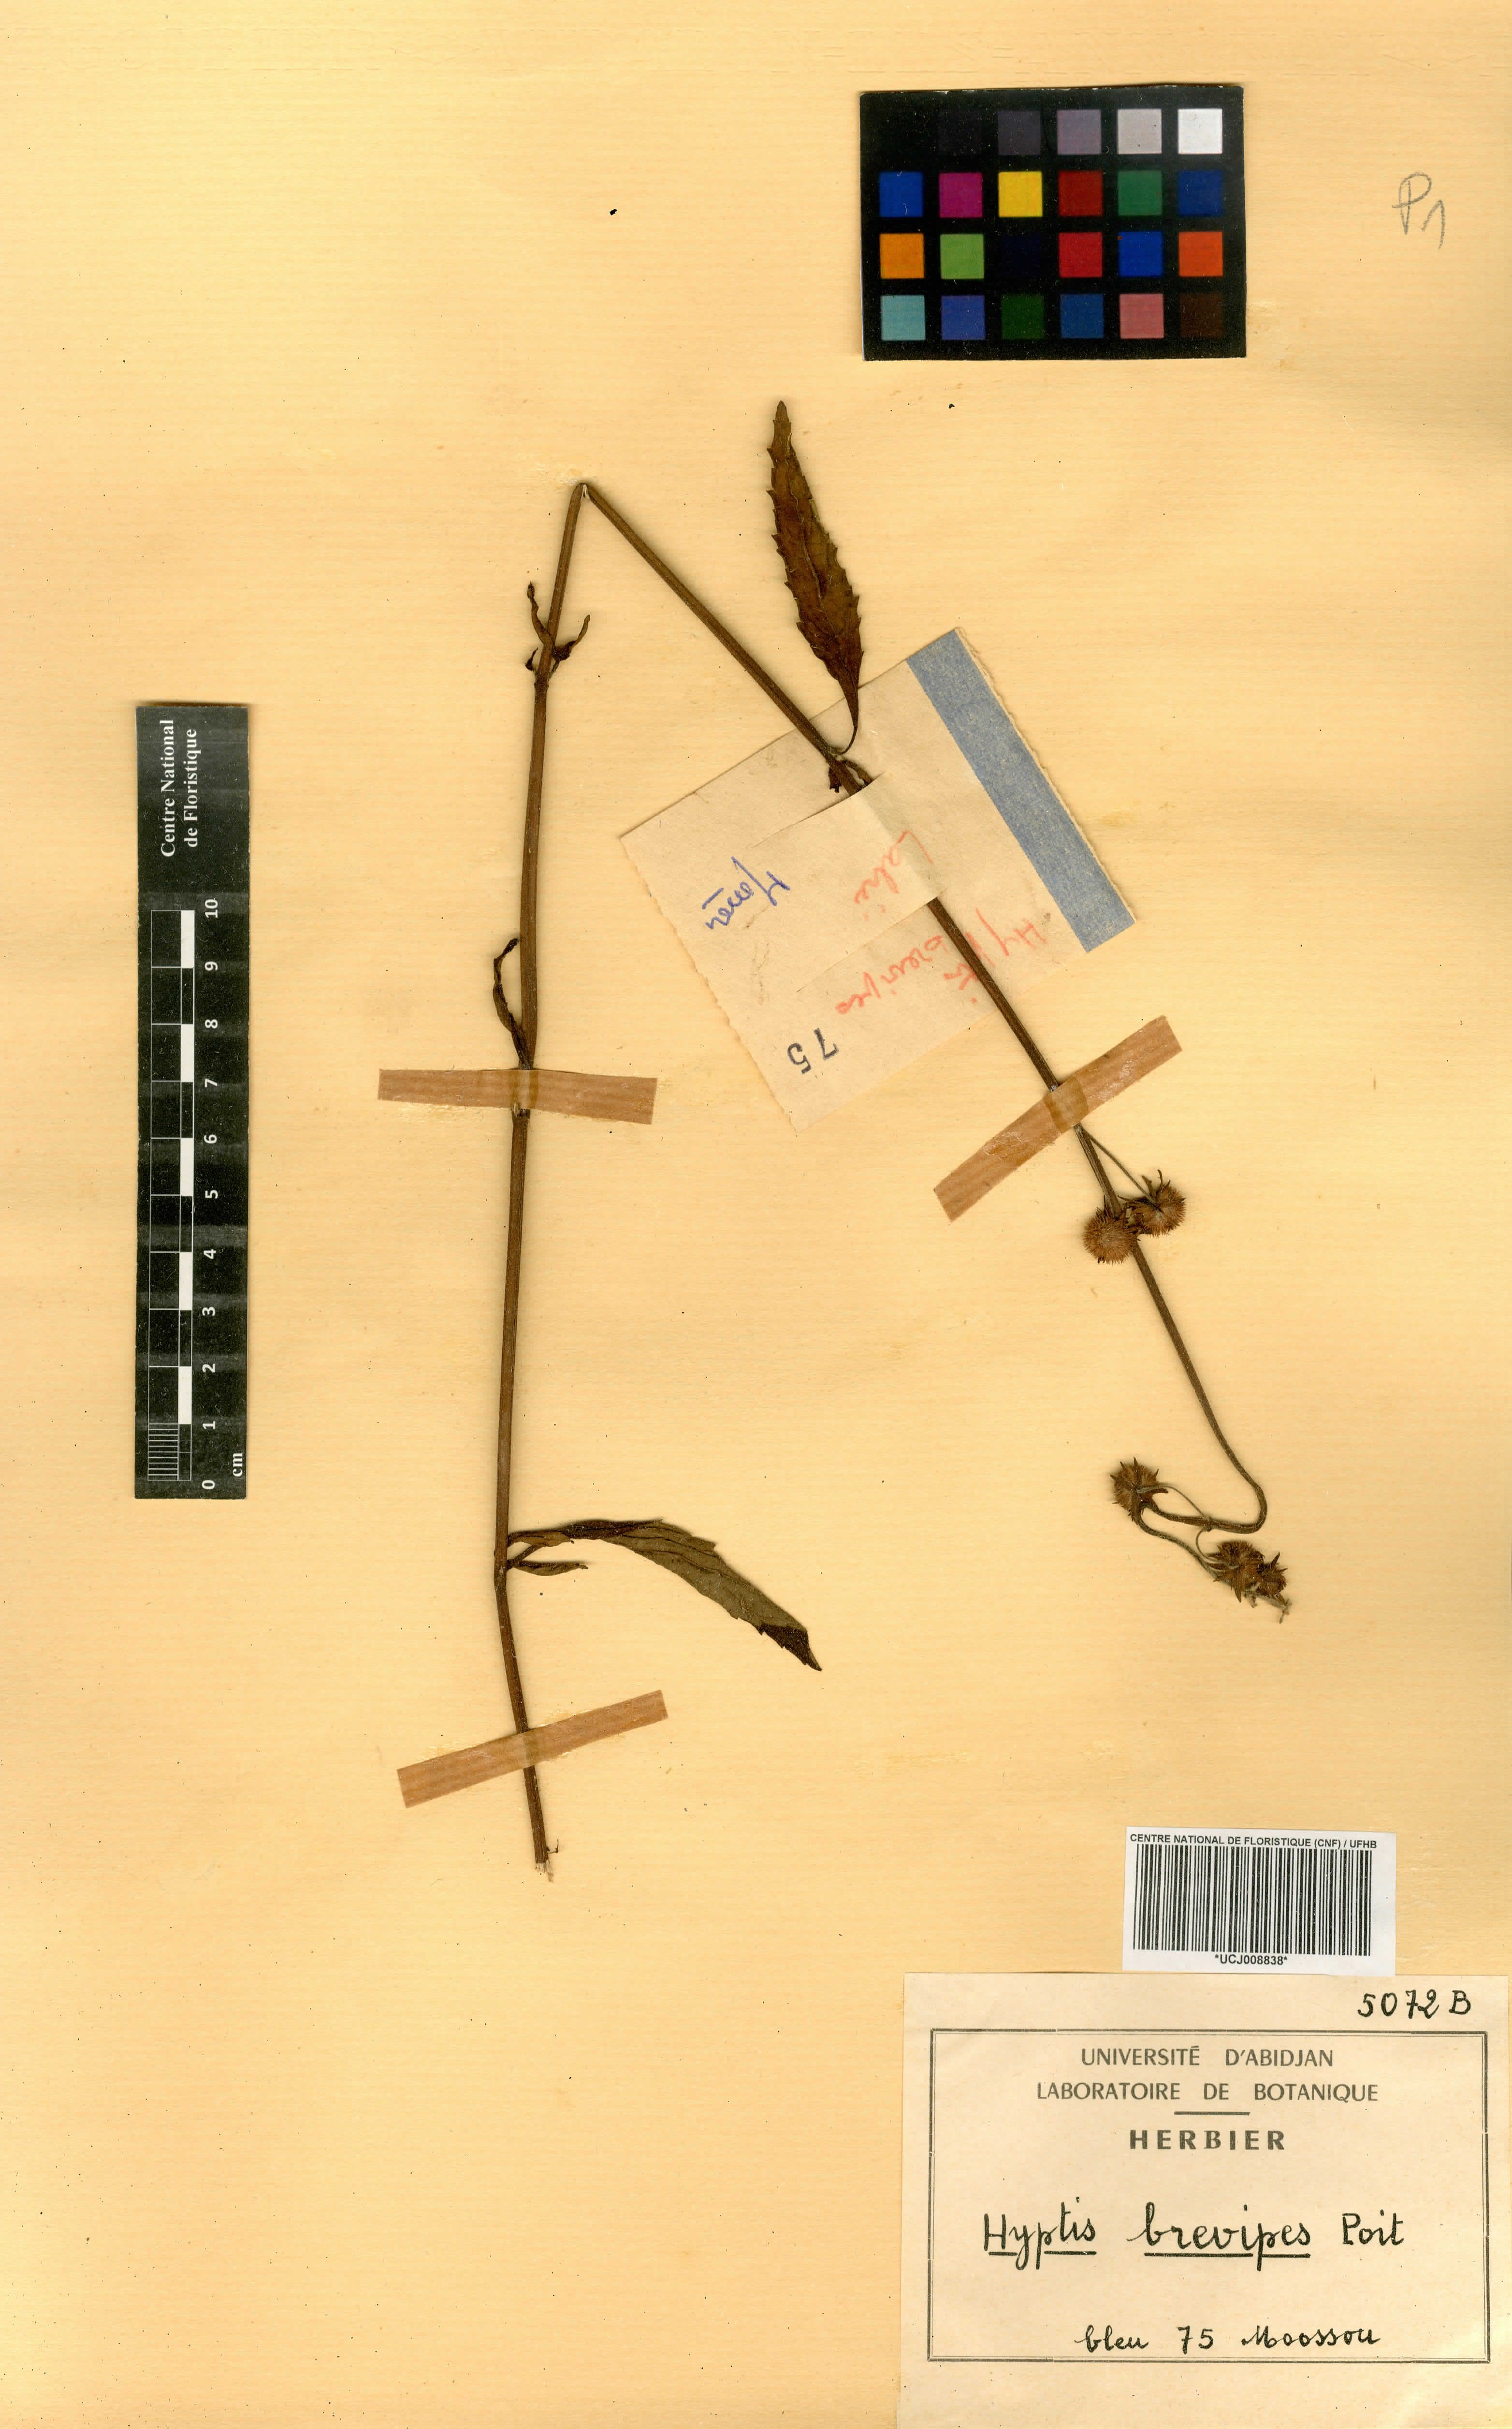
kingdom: Plantae
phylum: Tracheophyta
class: Magnoliopsida
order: Lamiales
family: Lamiaceae
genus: Hyptis
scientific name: Hyptis brevipes
